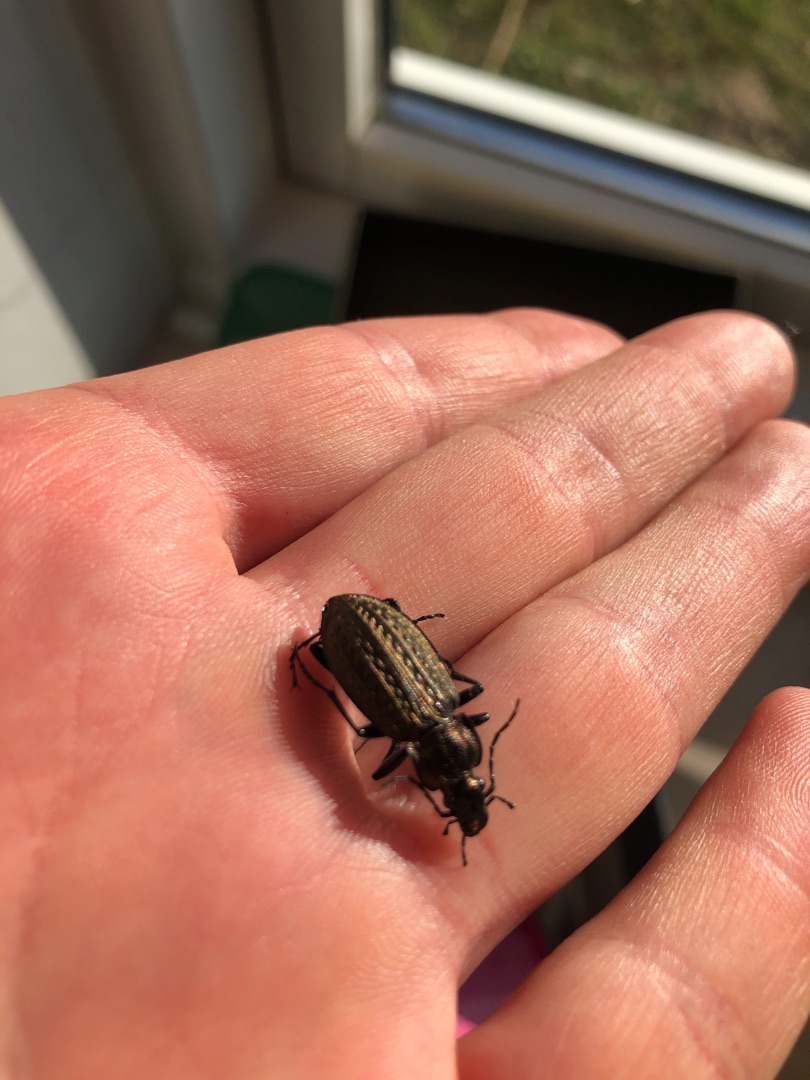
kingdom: Animalia
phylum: Arthropoda
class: Insecta
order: Coleoptera
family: Carabidae
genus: Carabus
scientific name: Carabus granulatus
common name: Kornet løber
